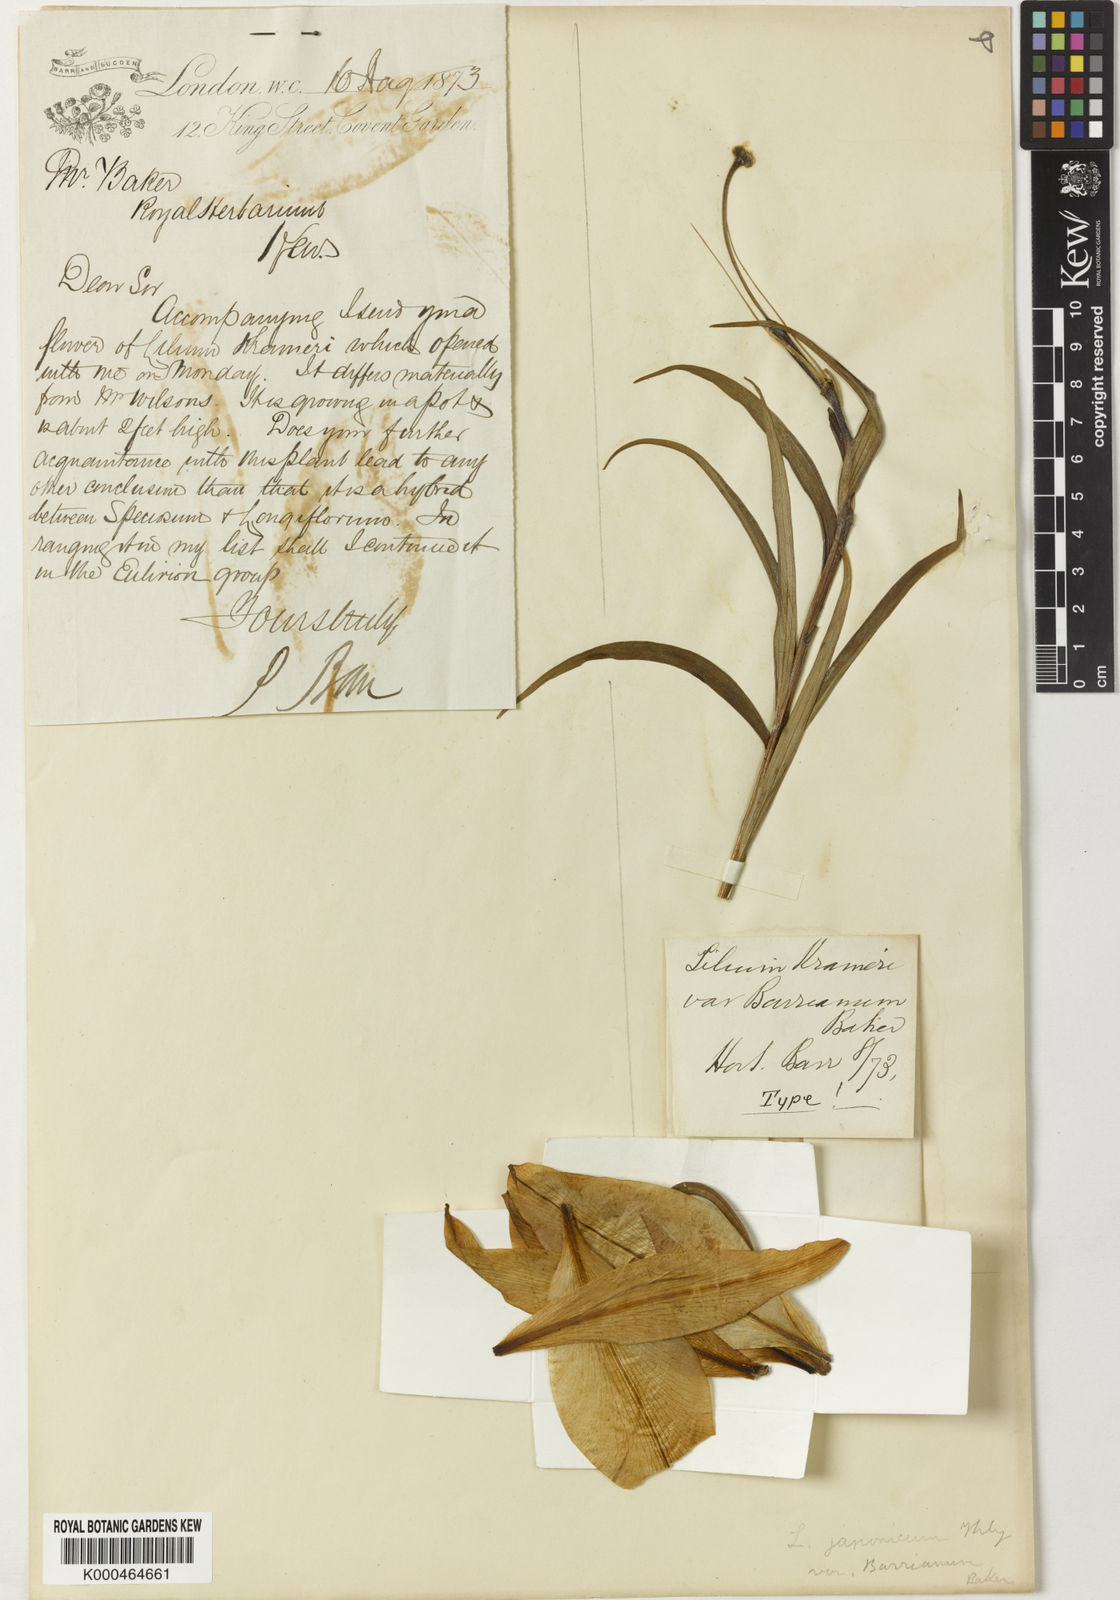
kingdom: Plantae
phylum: Tracheophyta
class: Liliopsida
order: Liliales
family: Liliaceae
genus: Lilium
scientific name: Lilium
